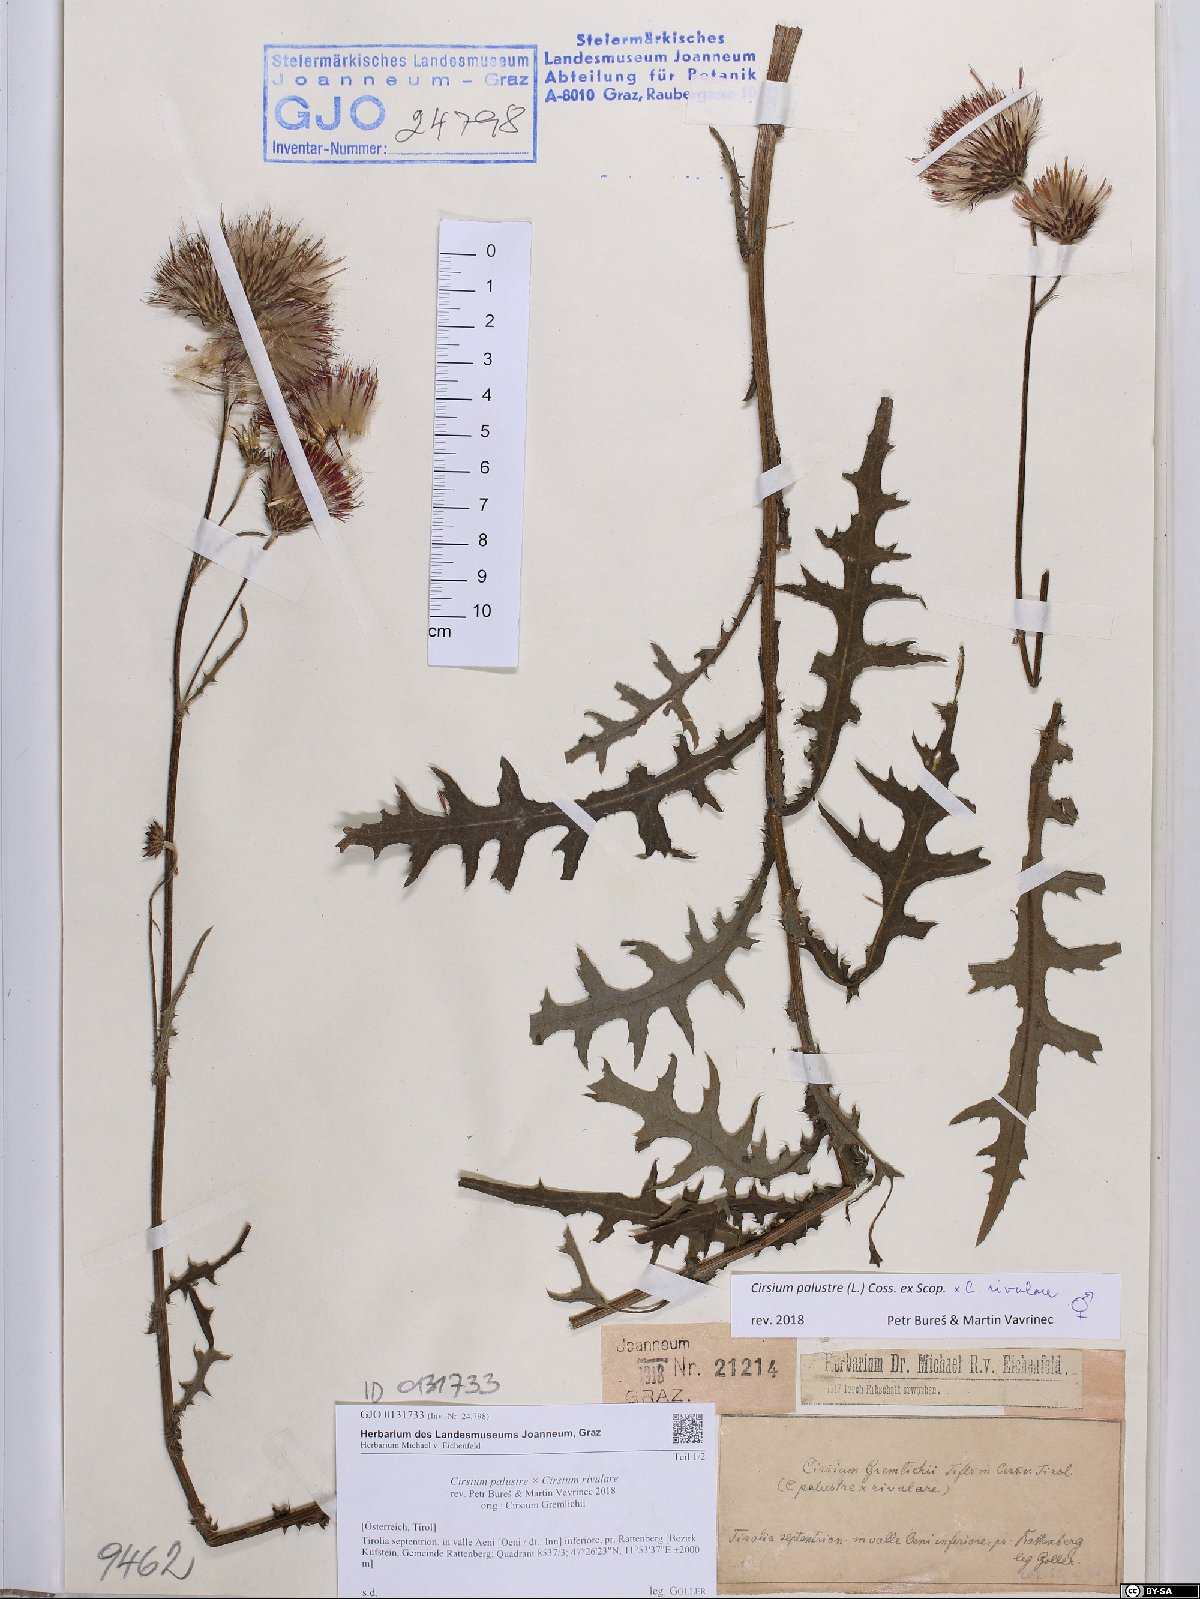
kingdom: Plantae
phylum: Tracheophyta
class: Magnoliopsida
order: Asterales
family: Asteraceae
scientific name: Asteraceae
